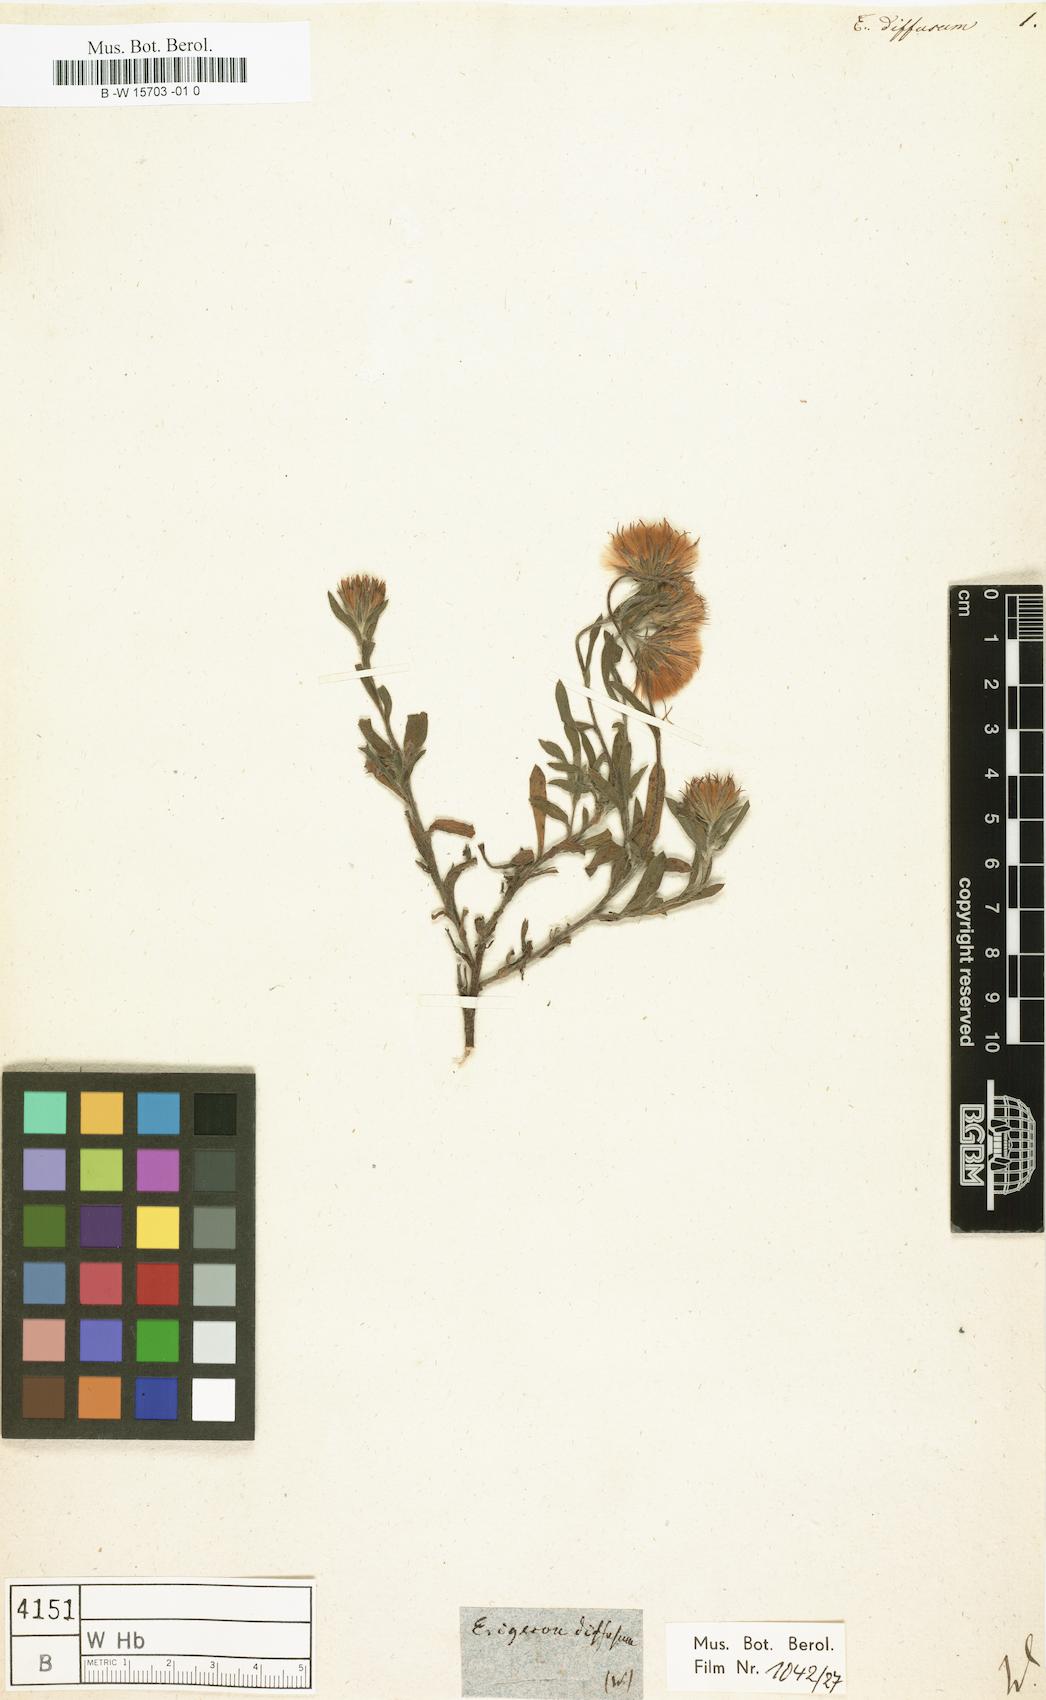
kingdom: Plantae
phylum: Tracheophyta
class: Magnoliopsida
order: Asterales
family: Asteraceae
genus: Erigeron
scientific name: Erigeron diffusus
